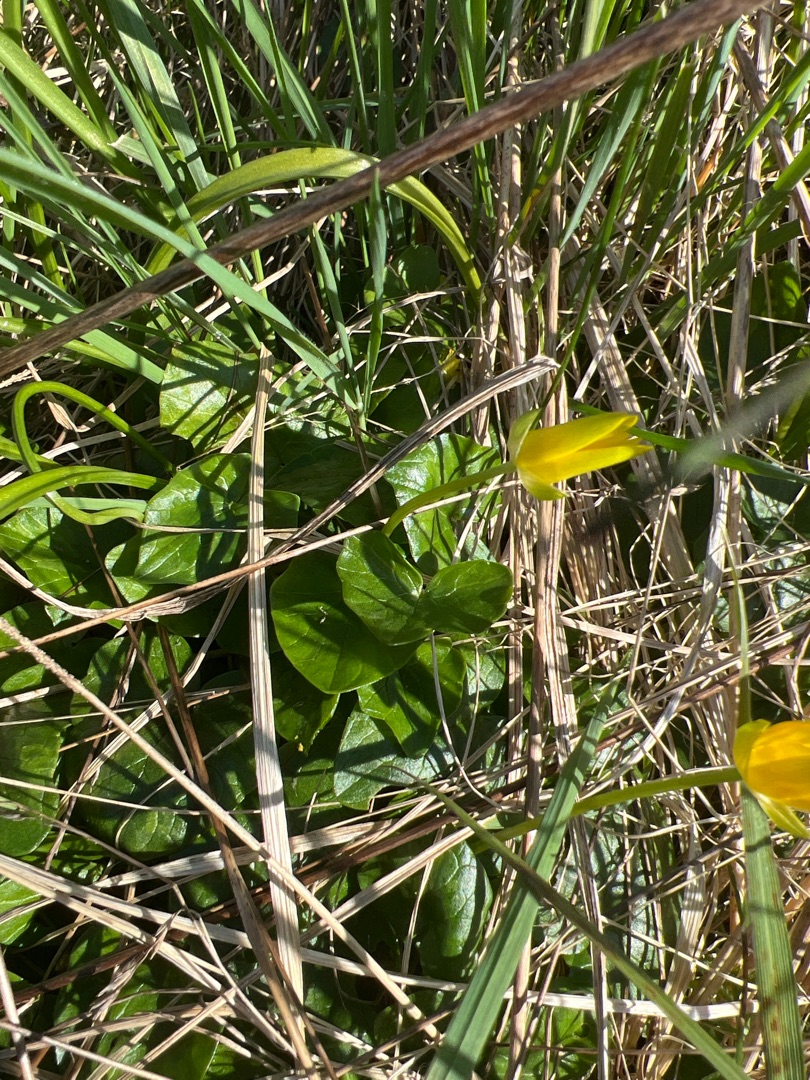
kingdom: Plantae
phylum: Tracheophyta
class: Magnoliopsida
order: Ranunculales
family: Ranunculaceae
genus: Ficaria
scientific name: Ficaria verna
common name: Almindelig vorterod
